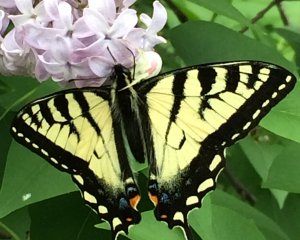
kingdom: Animalia
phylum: Arthropoda
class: Insecta
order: Lepidoptera
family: Papilionidae
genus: Pterourus
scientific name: Pterourus canadensis
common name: Canadian Tiger Swallowtail
